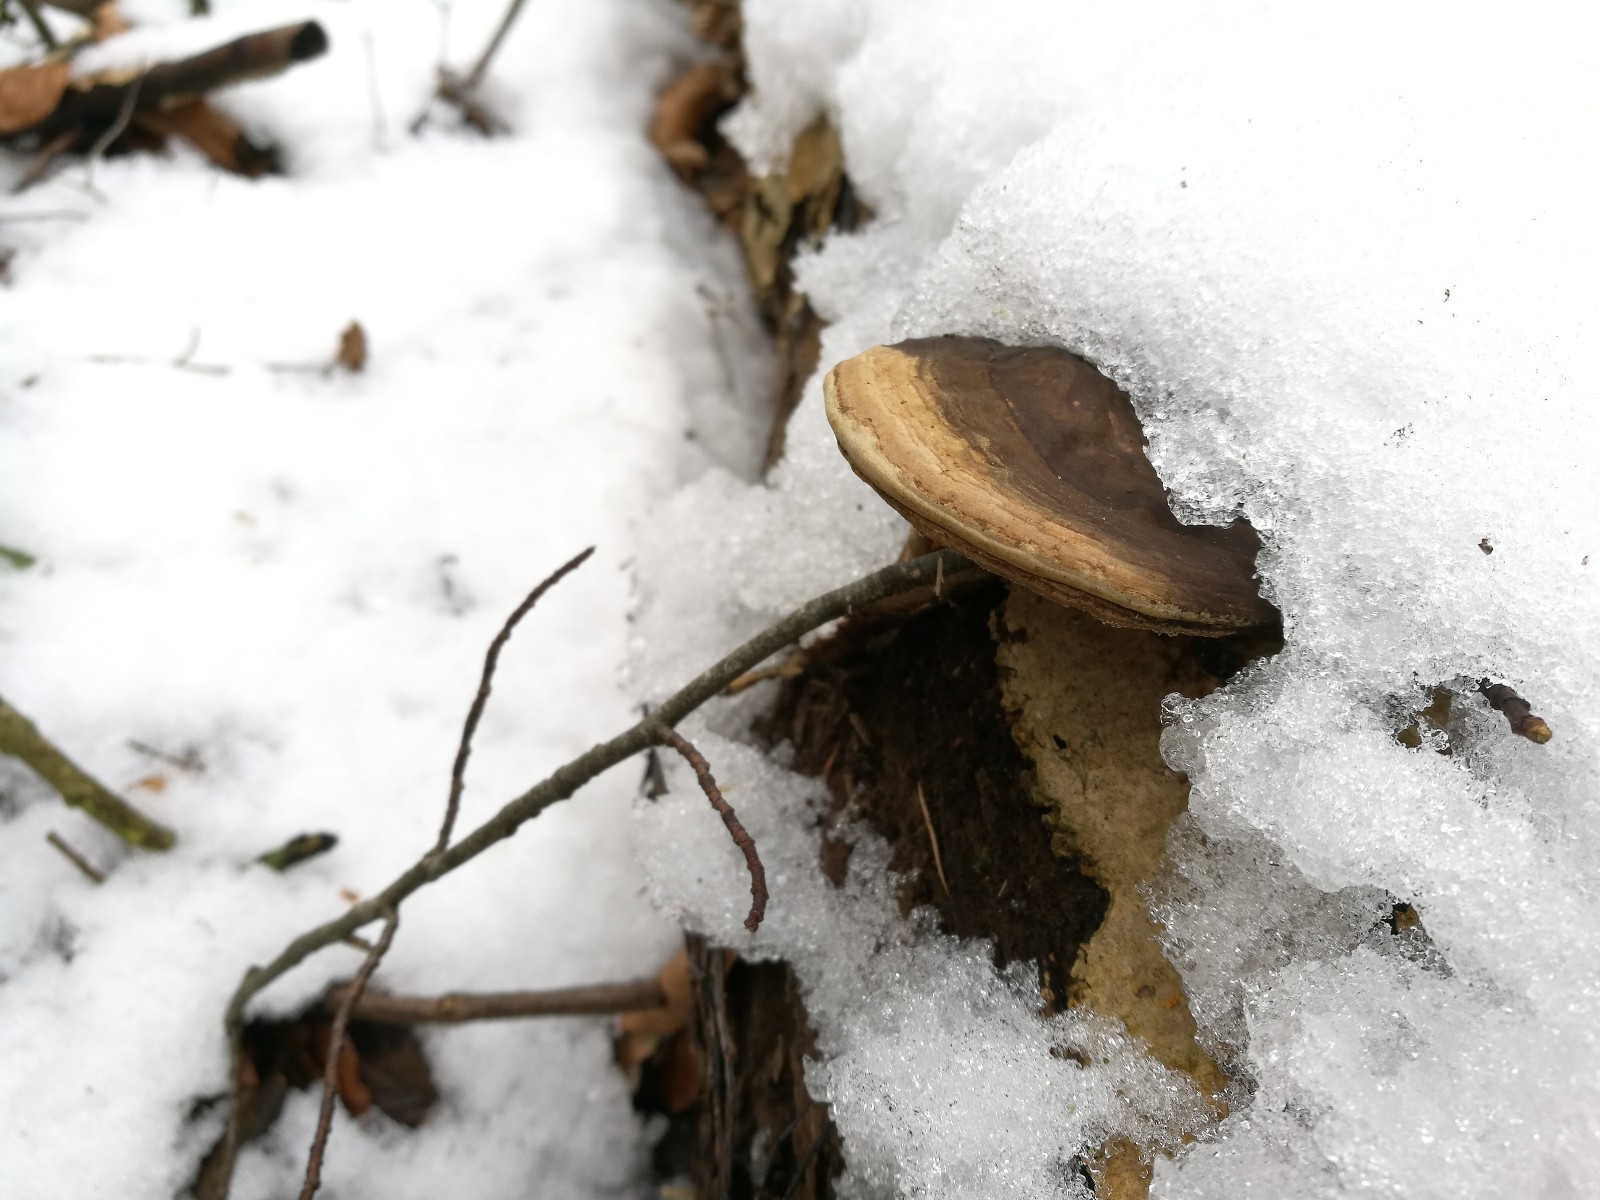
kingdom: Fungi
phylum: Basidiomycota
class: Agaricomycetes
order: Polyporales
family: Polyporaceae
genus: Ganoderma
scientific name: Ganoderma applanatum
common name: flad lakporesvamp
